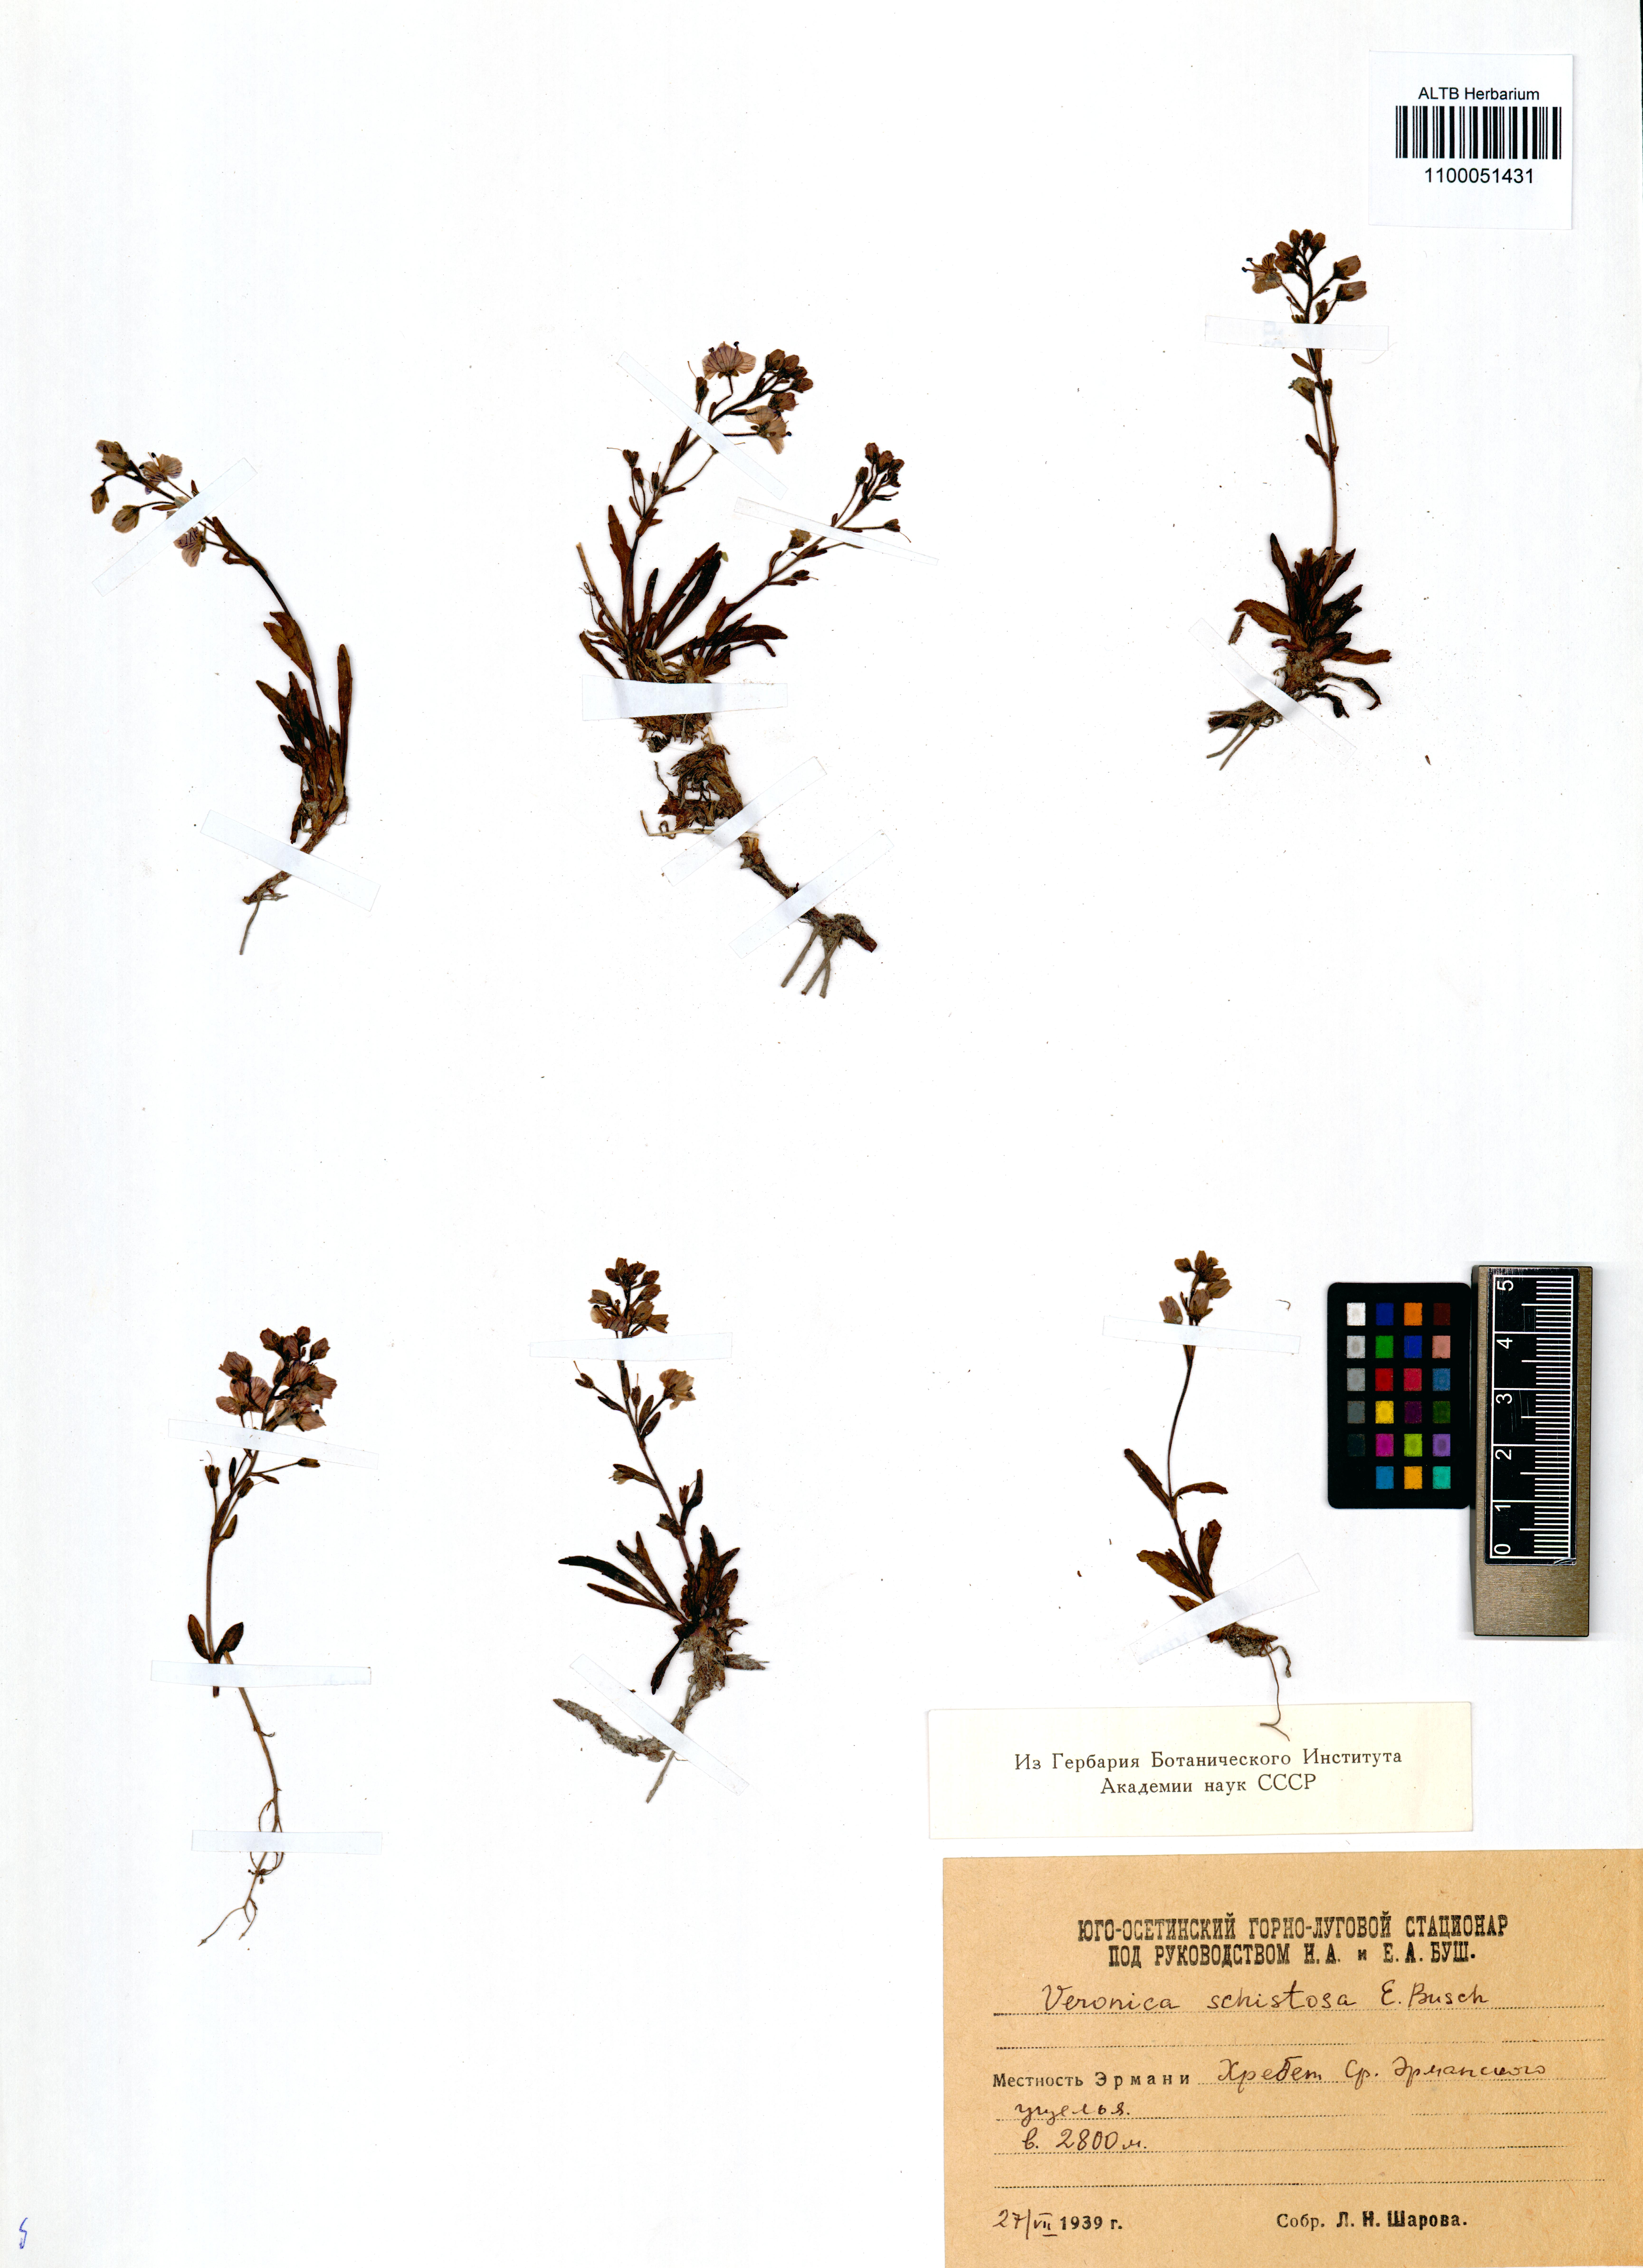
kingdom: Plantae
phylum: Tracheophyta
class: Magnoliopsida
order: Lamiales
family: Plantaginaceae
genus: Veronica
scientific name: Veronica schistosa
